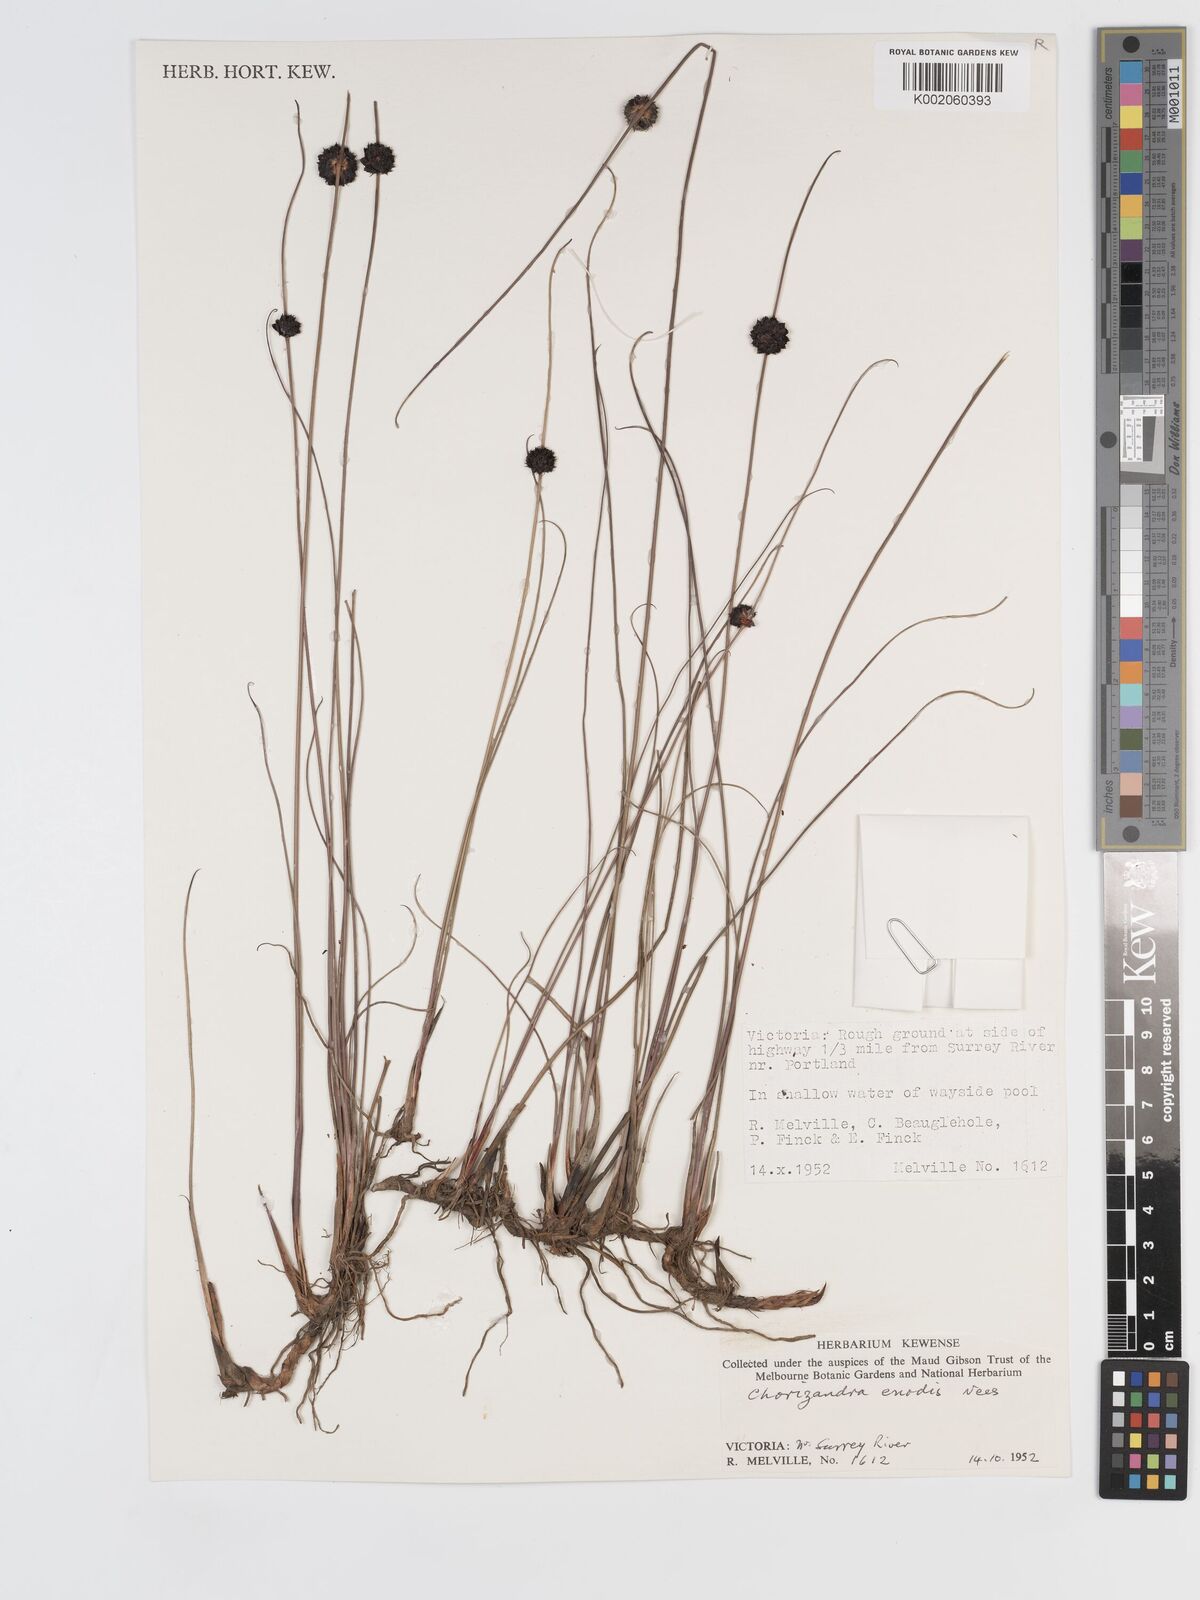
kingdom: Plantae
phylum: Tracheophyta
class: Liliopsida
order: Poales
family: Cyperaceae
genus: Chorizandra
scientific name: Chorizandra enodis
